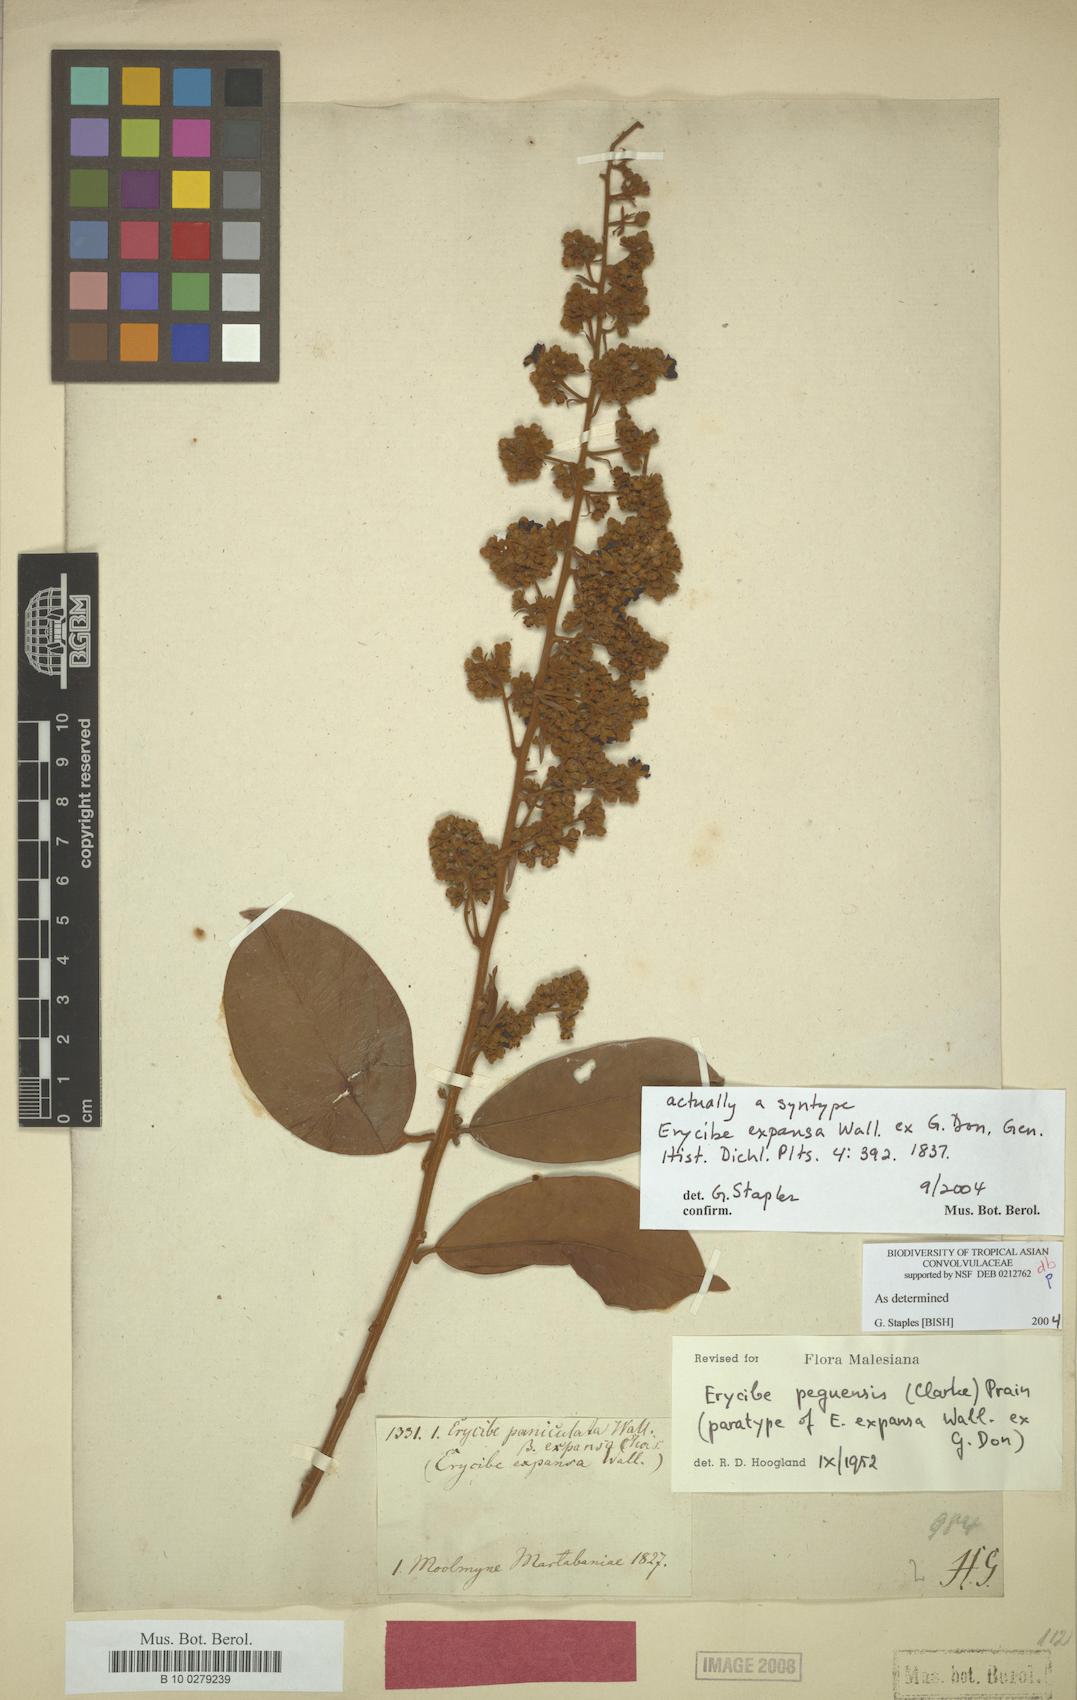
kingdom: Plantae
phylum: Tracheophyta
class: Magnoliopsida
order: Solanales
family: Convolvulaceae
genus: Argyreia
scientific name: Argyreia capitiformis
